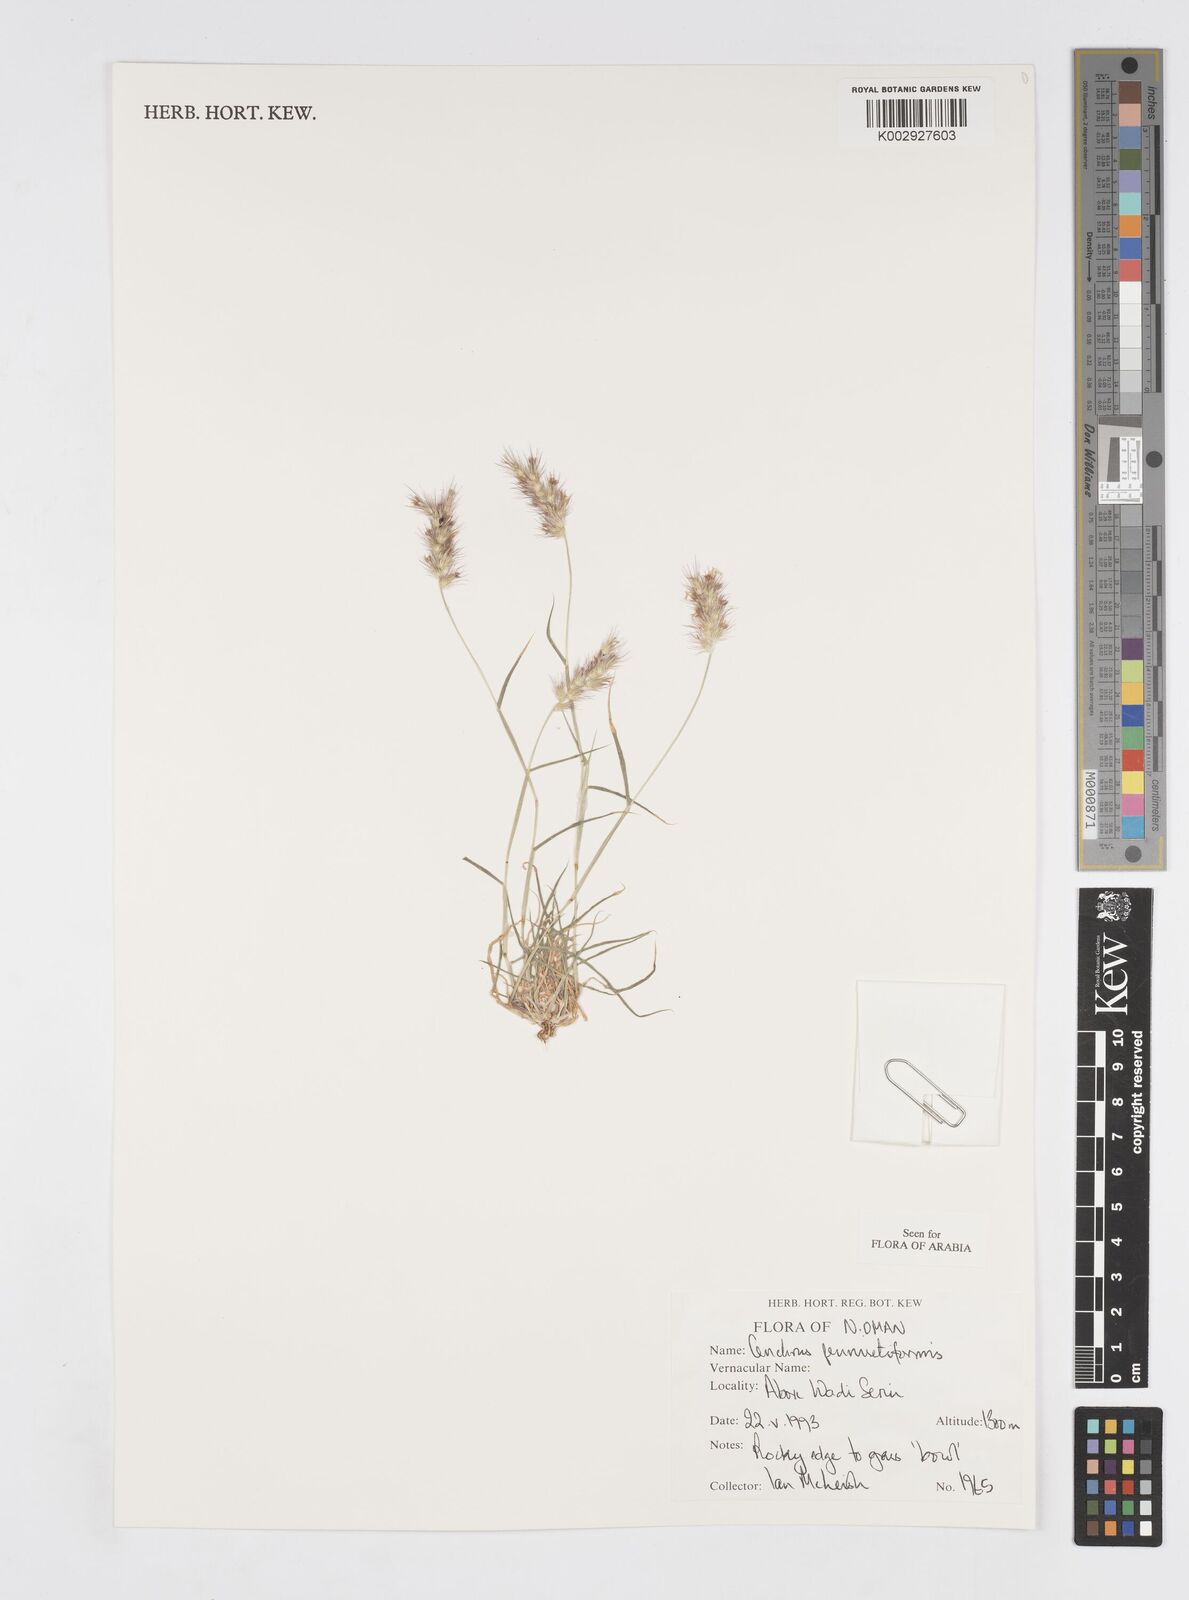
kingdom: Plantae
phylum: Tracheophyta
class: Liliopsida
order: Poales
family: Poaceae
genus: Cenchrus
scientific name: Cenchrus pennisetiformis
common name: Cloncurry
